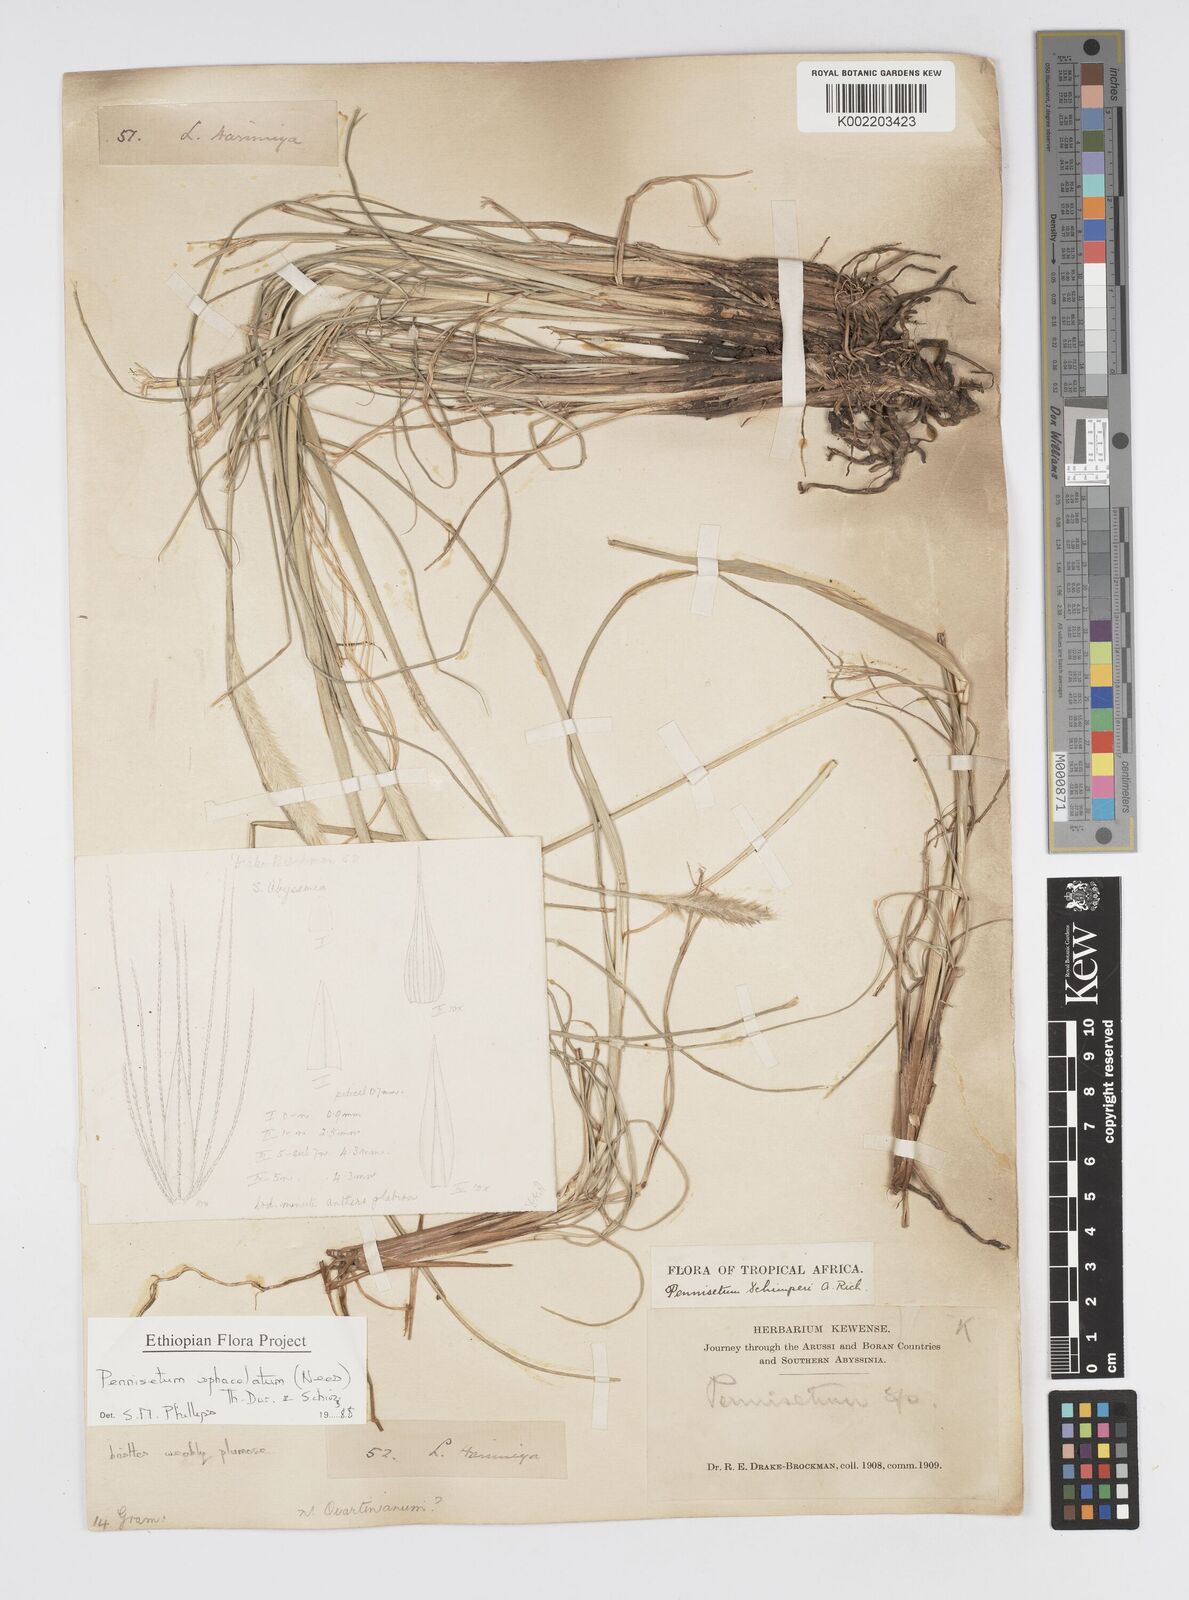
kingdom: Plantae
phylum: Tracheophyta
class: Liliopsida
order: Poales
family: Poaceae
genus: Cenchrus
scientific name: Cenchrus sphacelatus
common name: Bulgras
